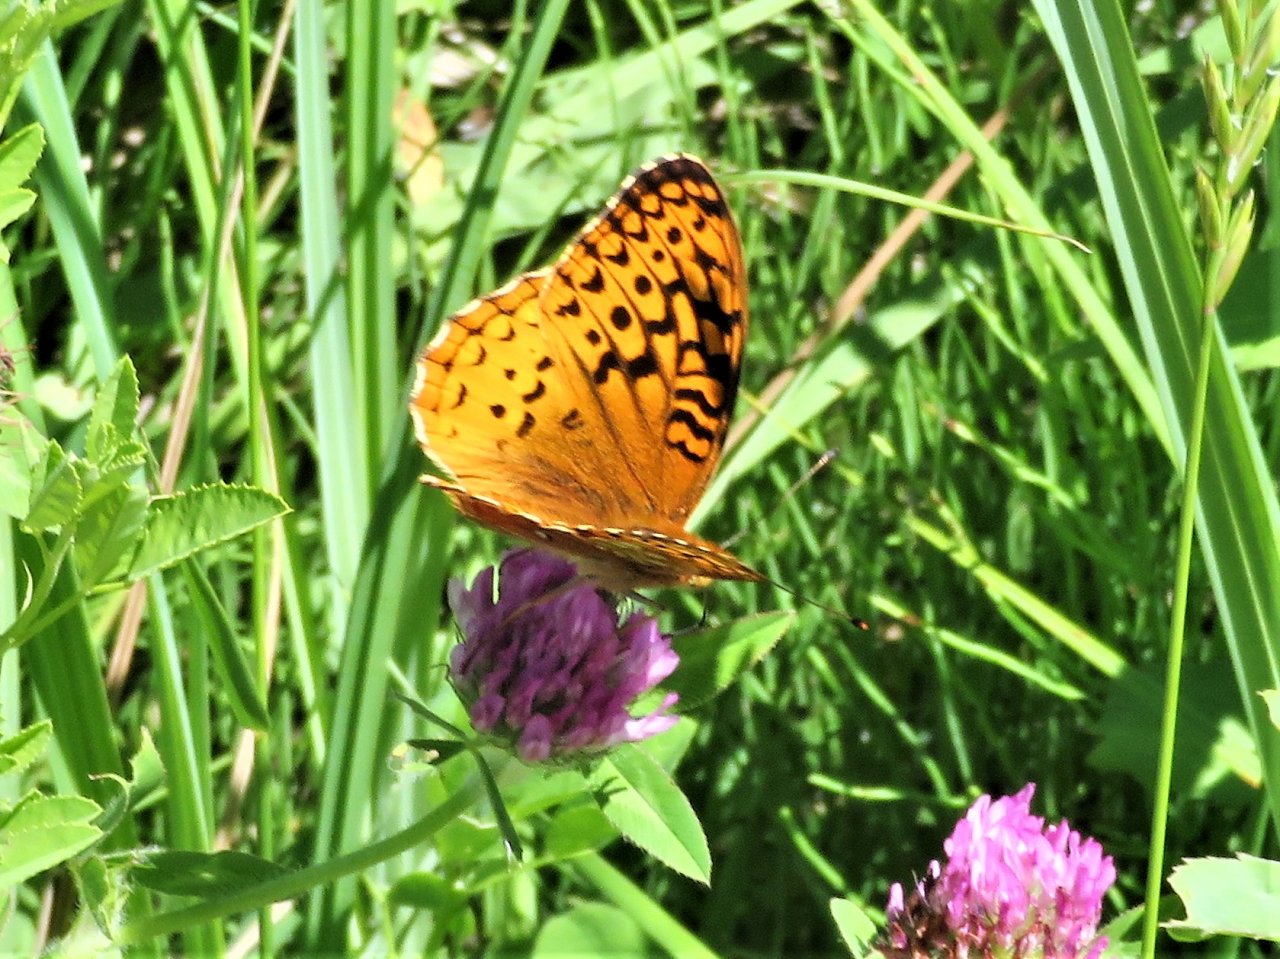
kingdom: Animalia
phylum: Arthropoda
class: Insecta
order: Lepidoptera
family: Nymphalidae
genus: Speyeria
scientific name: Speyeria cybele
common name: Great Spangled Fritillary
